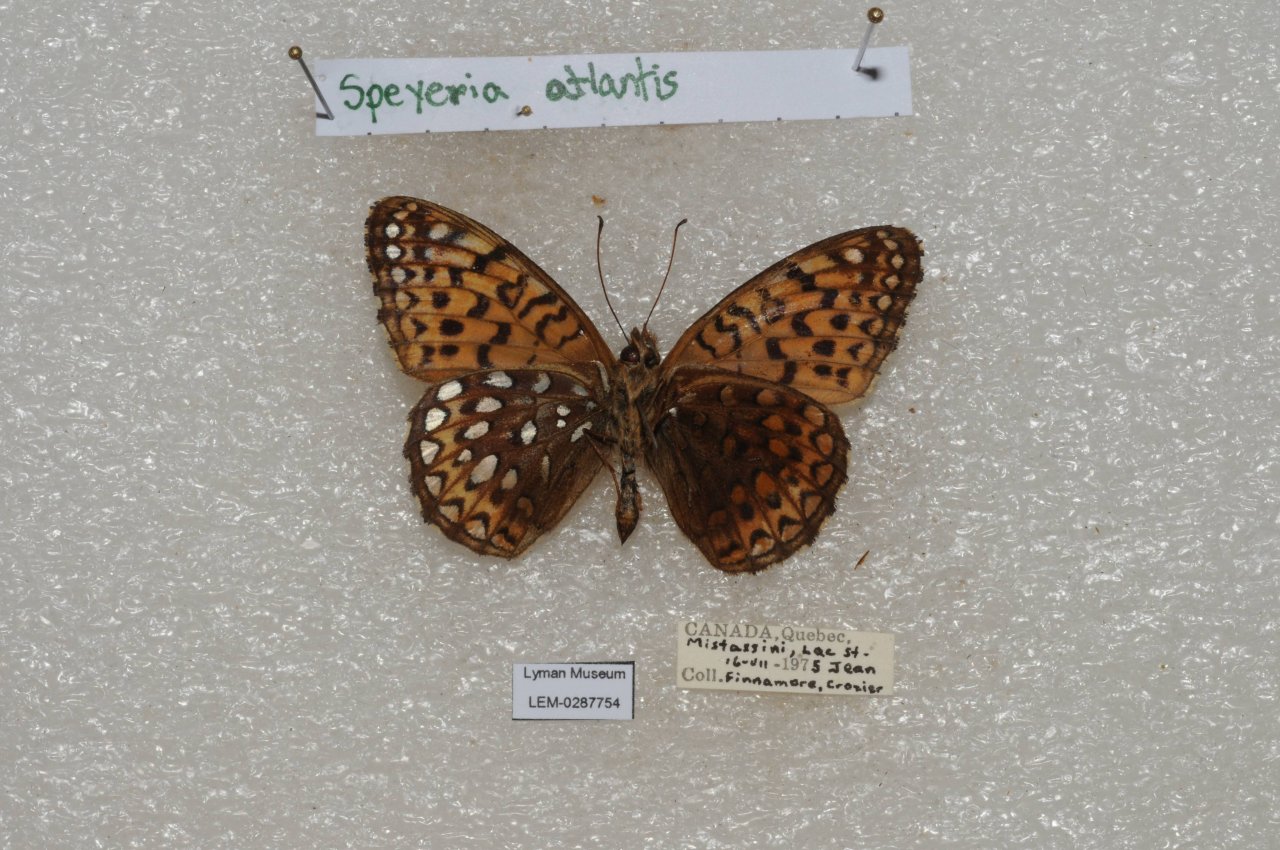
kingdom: Animalia
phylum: Arthropoda
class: Insecta
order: Lepidoptera
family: Nymphalidae
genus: Speyeria
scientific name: Speyeria atlantis
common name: Atlantis Fritillary
